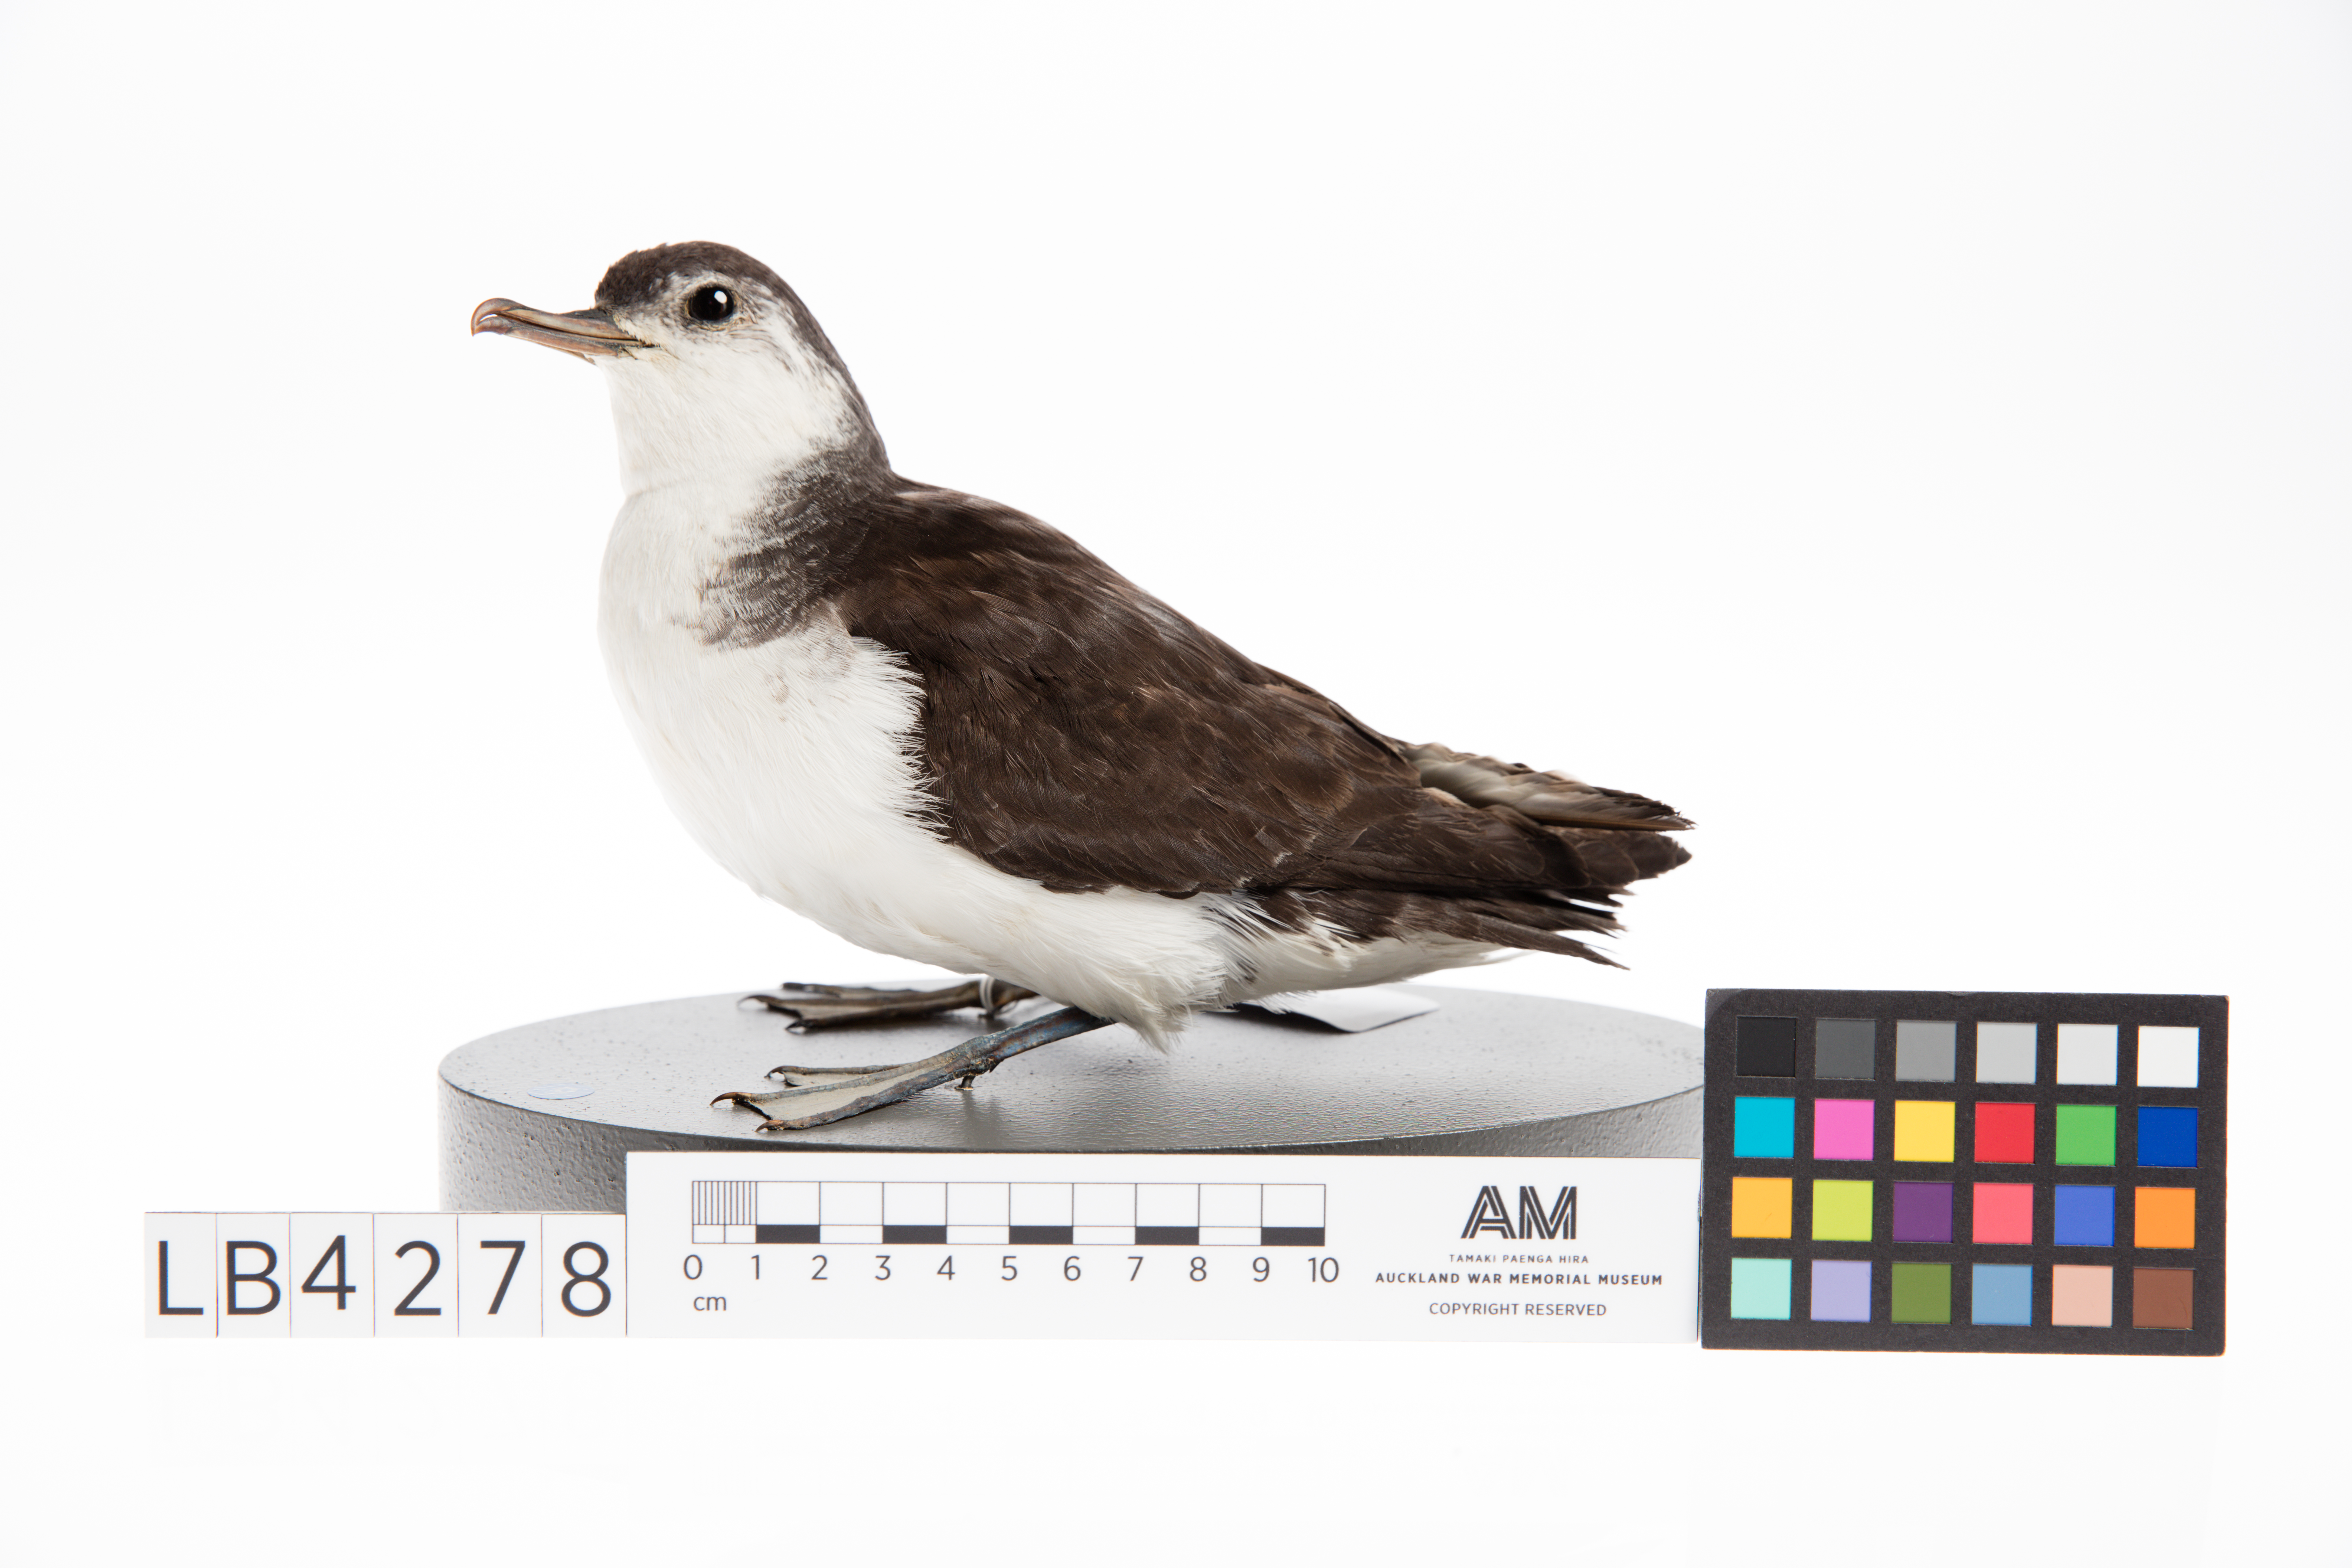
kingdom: Animalia
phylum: Chordata
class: Aves
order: Procellariiformes
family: Procellariidae
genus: Puffinus
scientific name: Puffinus assimilis
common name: Little shearwater
